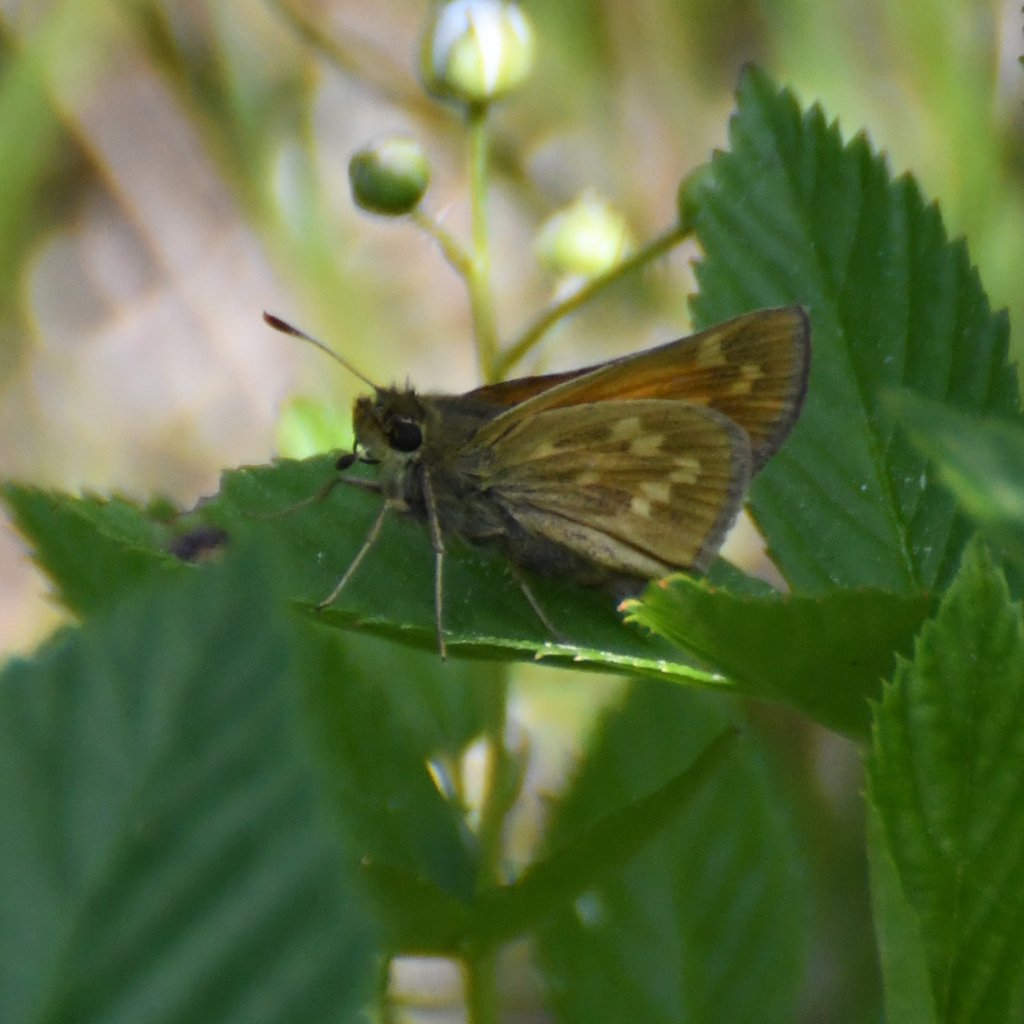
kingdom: Animalia
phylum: Arthropoda
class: Insecta
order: Lepidoptera
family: Hesperiidae
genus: Hesperia
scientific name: Hesperia sassacus
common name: Sassacus Skipper
